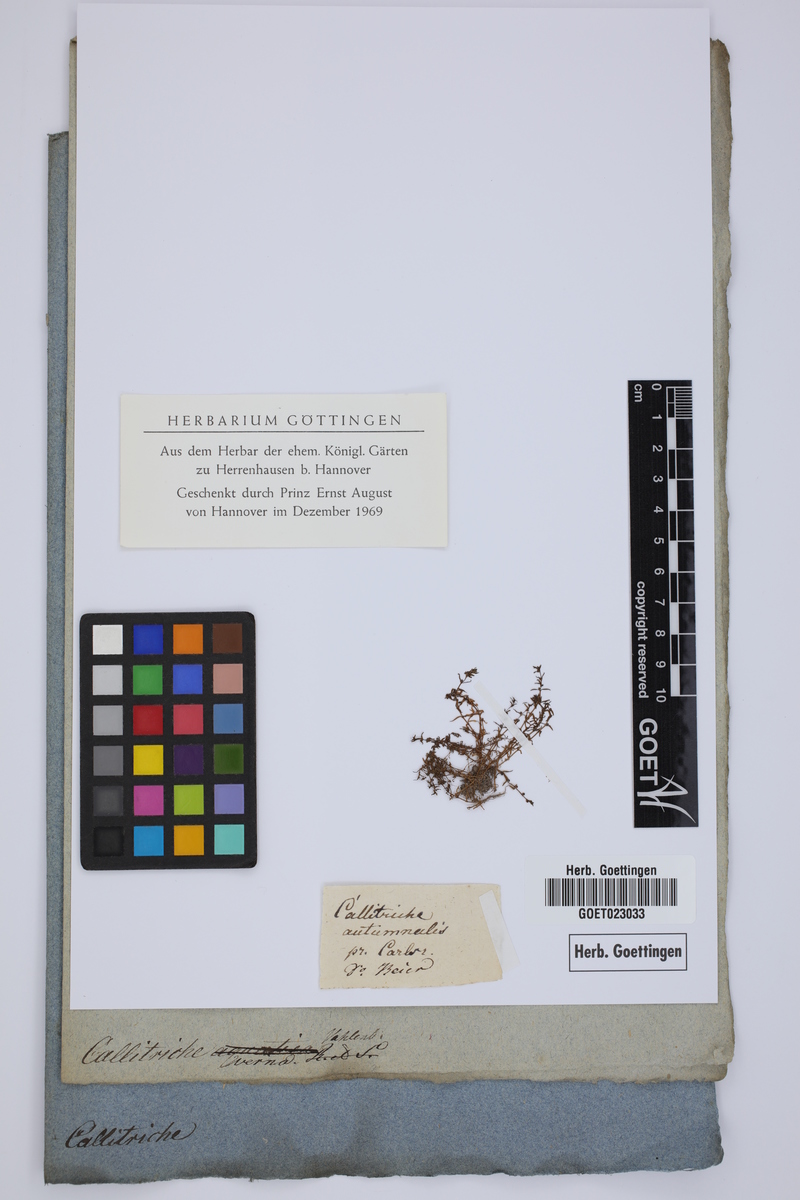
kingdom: Plantae
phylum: Tracheophyta
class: Magnoliopsida
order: Lamiales
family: Plantaginaceae
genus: Callitriche
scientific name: Callitriche palustris
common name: Spring water-starwort
